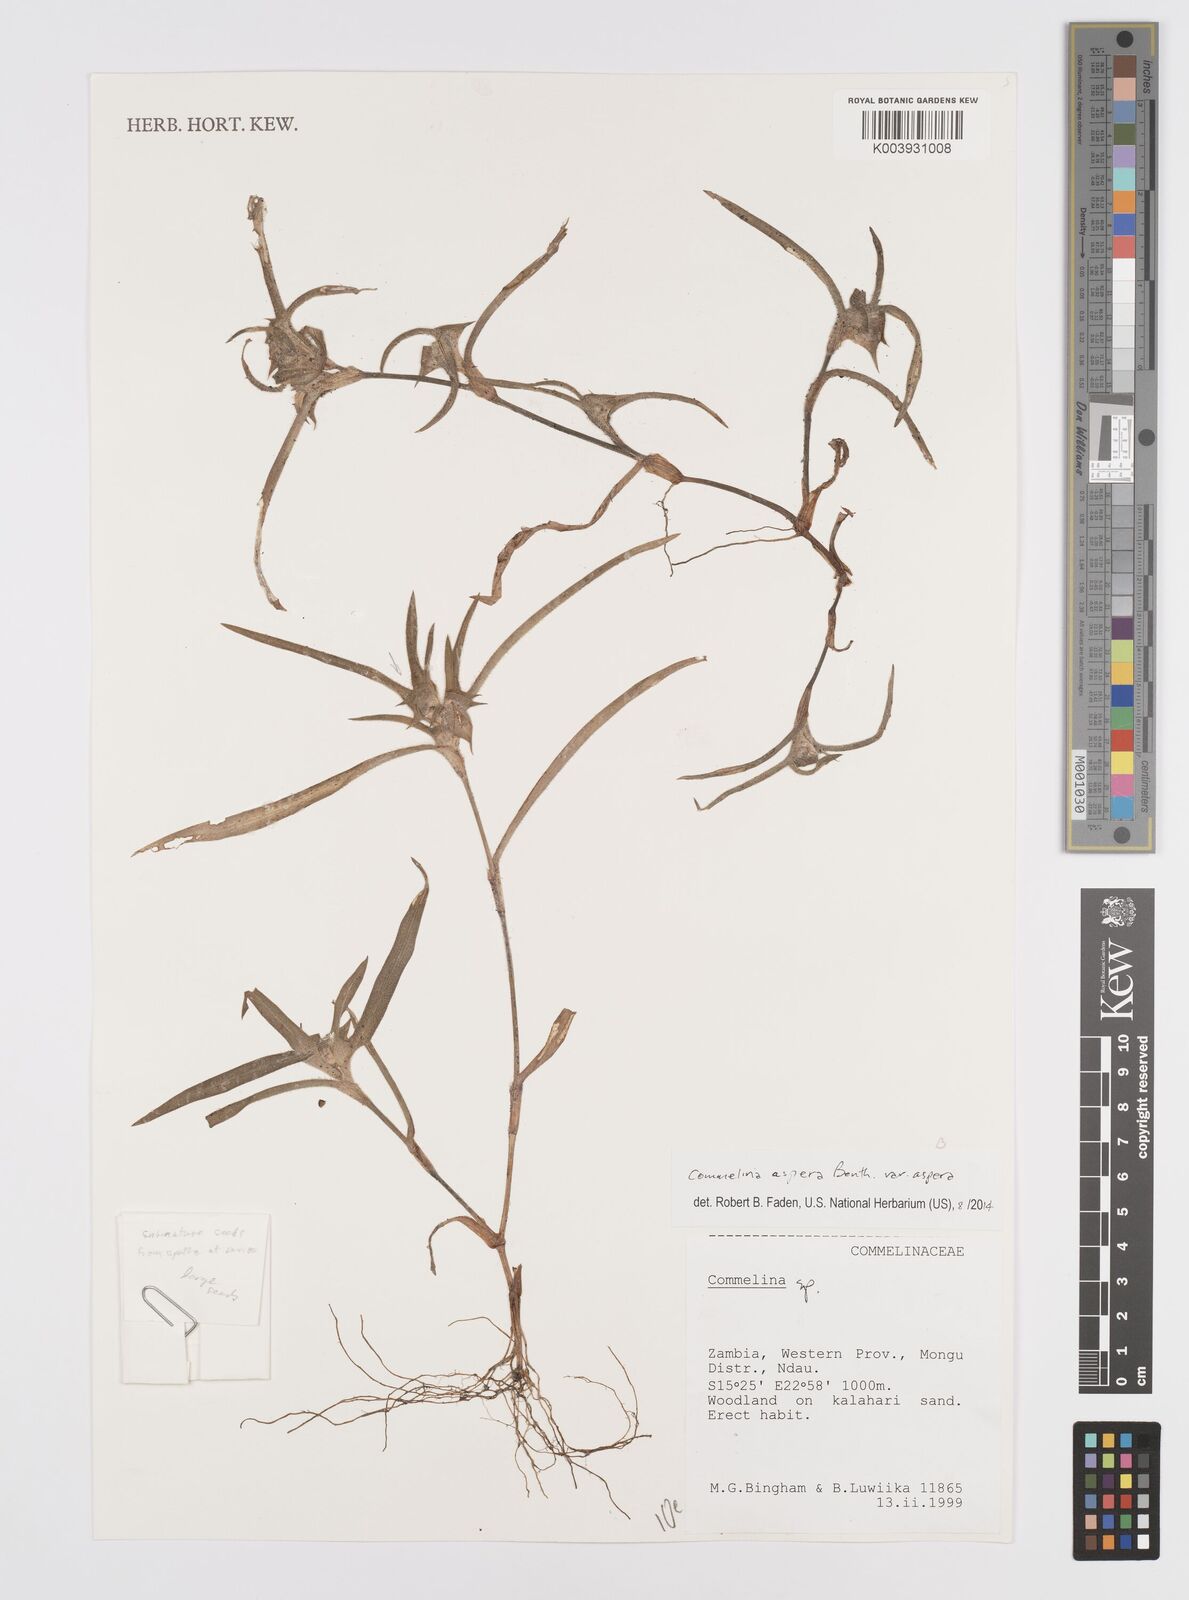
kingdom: Plantae
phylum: Tracheophyta
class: Liliopsida
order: Commelinales
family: Commelinaceae
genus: Commelina
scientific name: Commelina aspera
